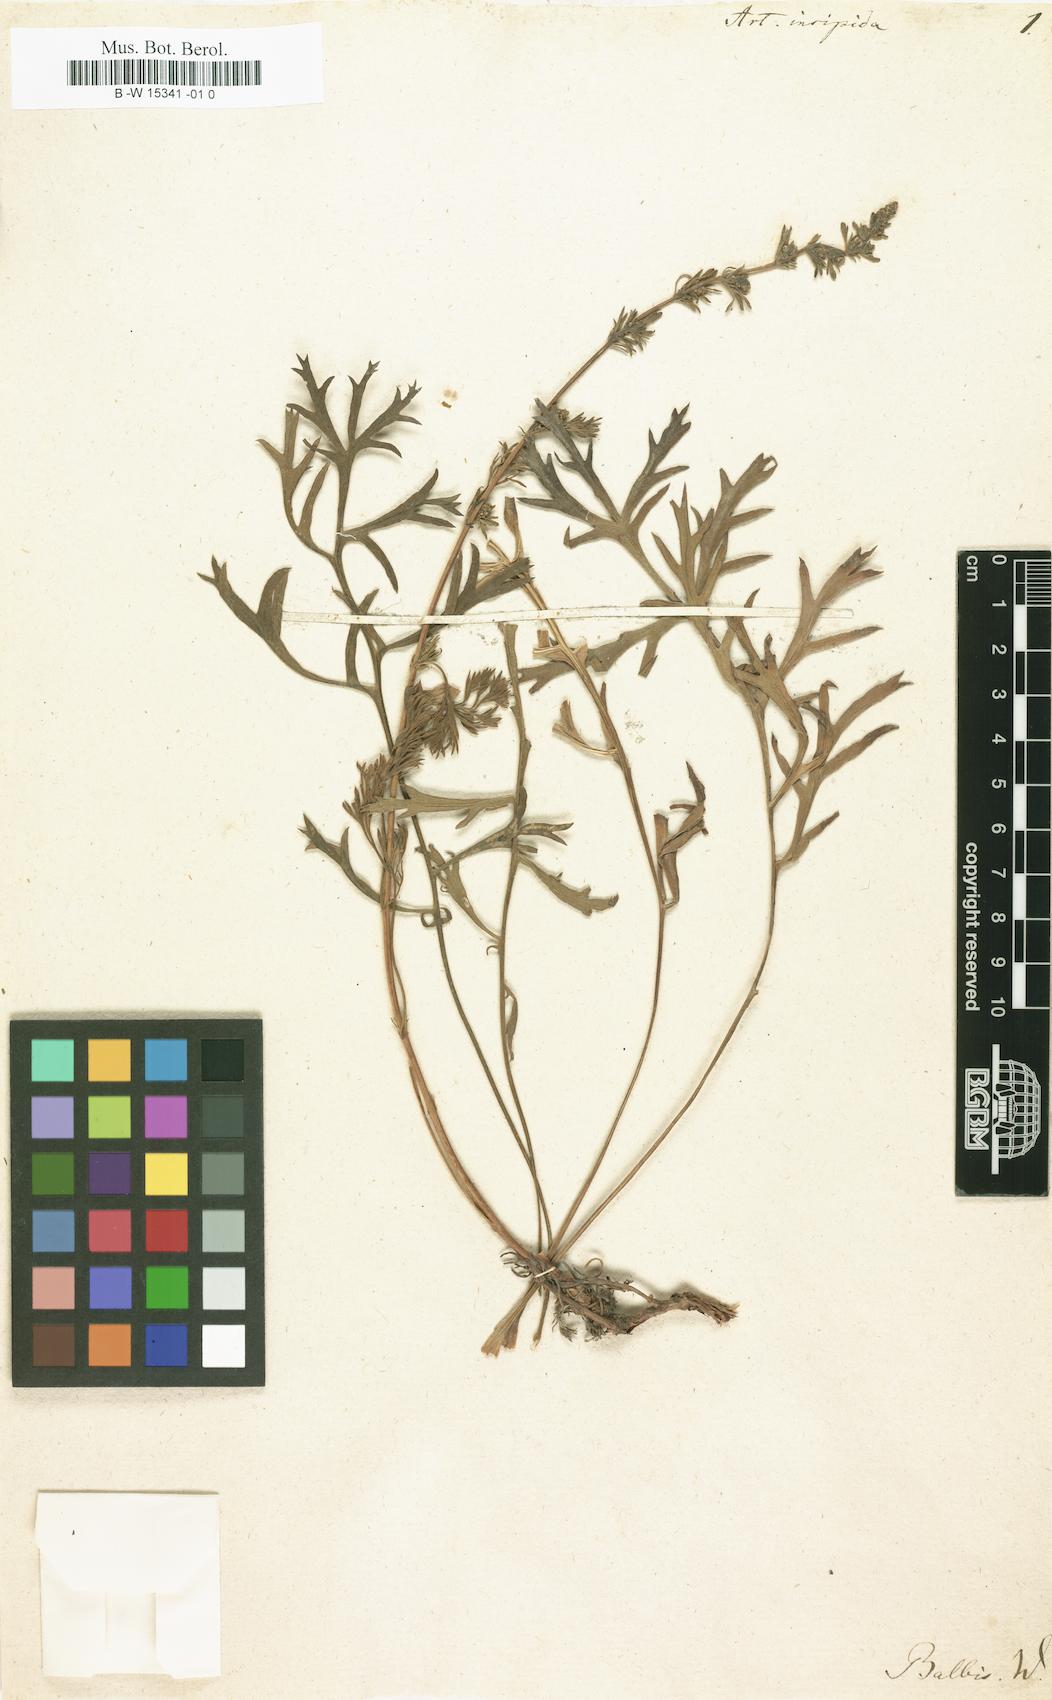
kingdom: Plantae
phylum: Tracheophyta
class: Magnoliopsida
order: Asterales
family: Asteraceae
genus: Artemisia
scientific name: Artemisia insipida
